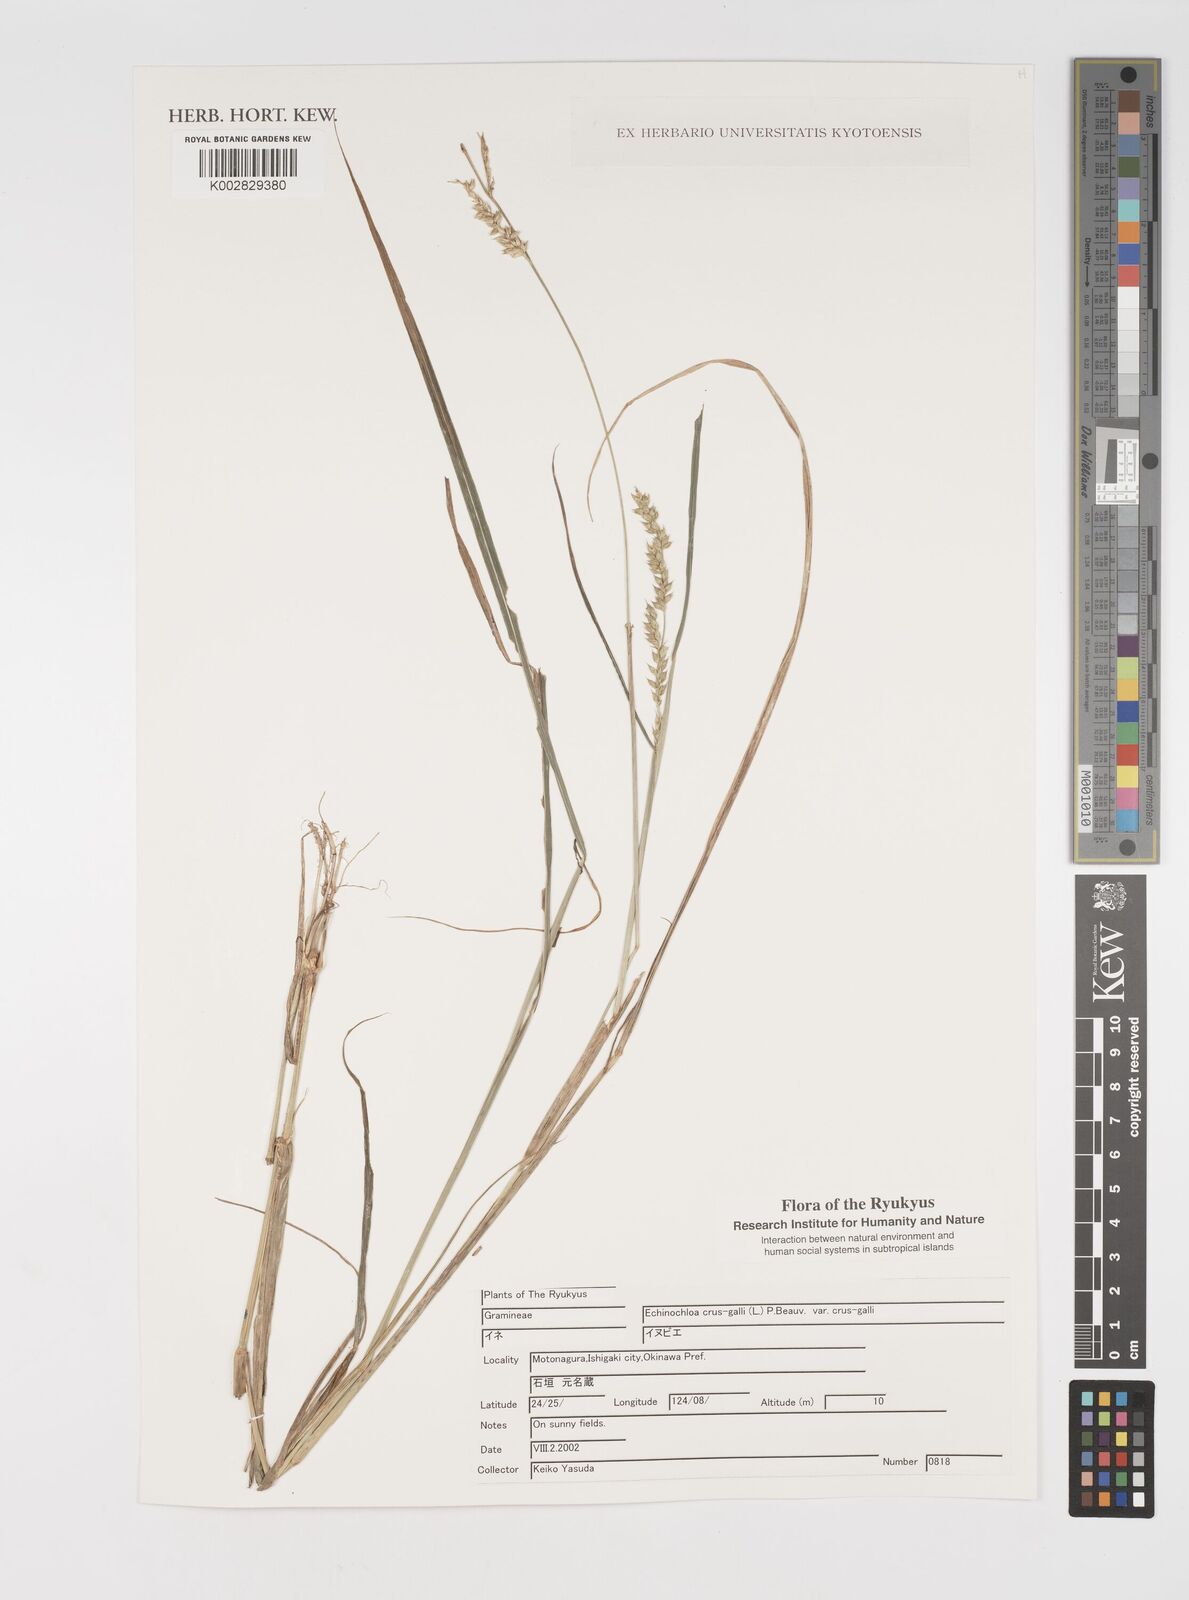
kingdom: Plantae
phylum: Tracheophyta
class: Liliopsida
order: Poales
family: Poaceae
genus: Echinochloa
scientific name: Echinochloa crus-galli
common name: Cockspur
